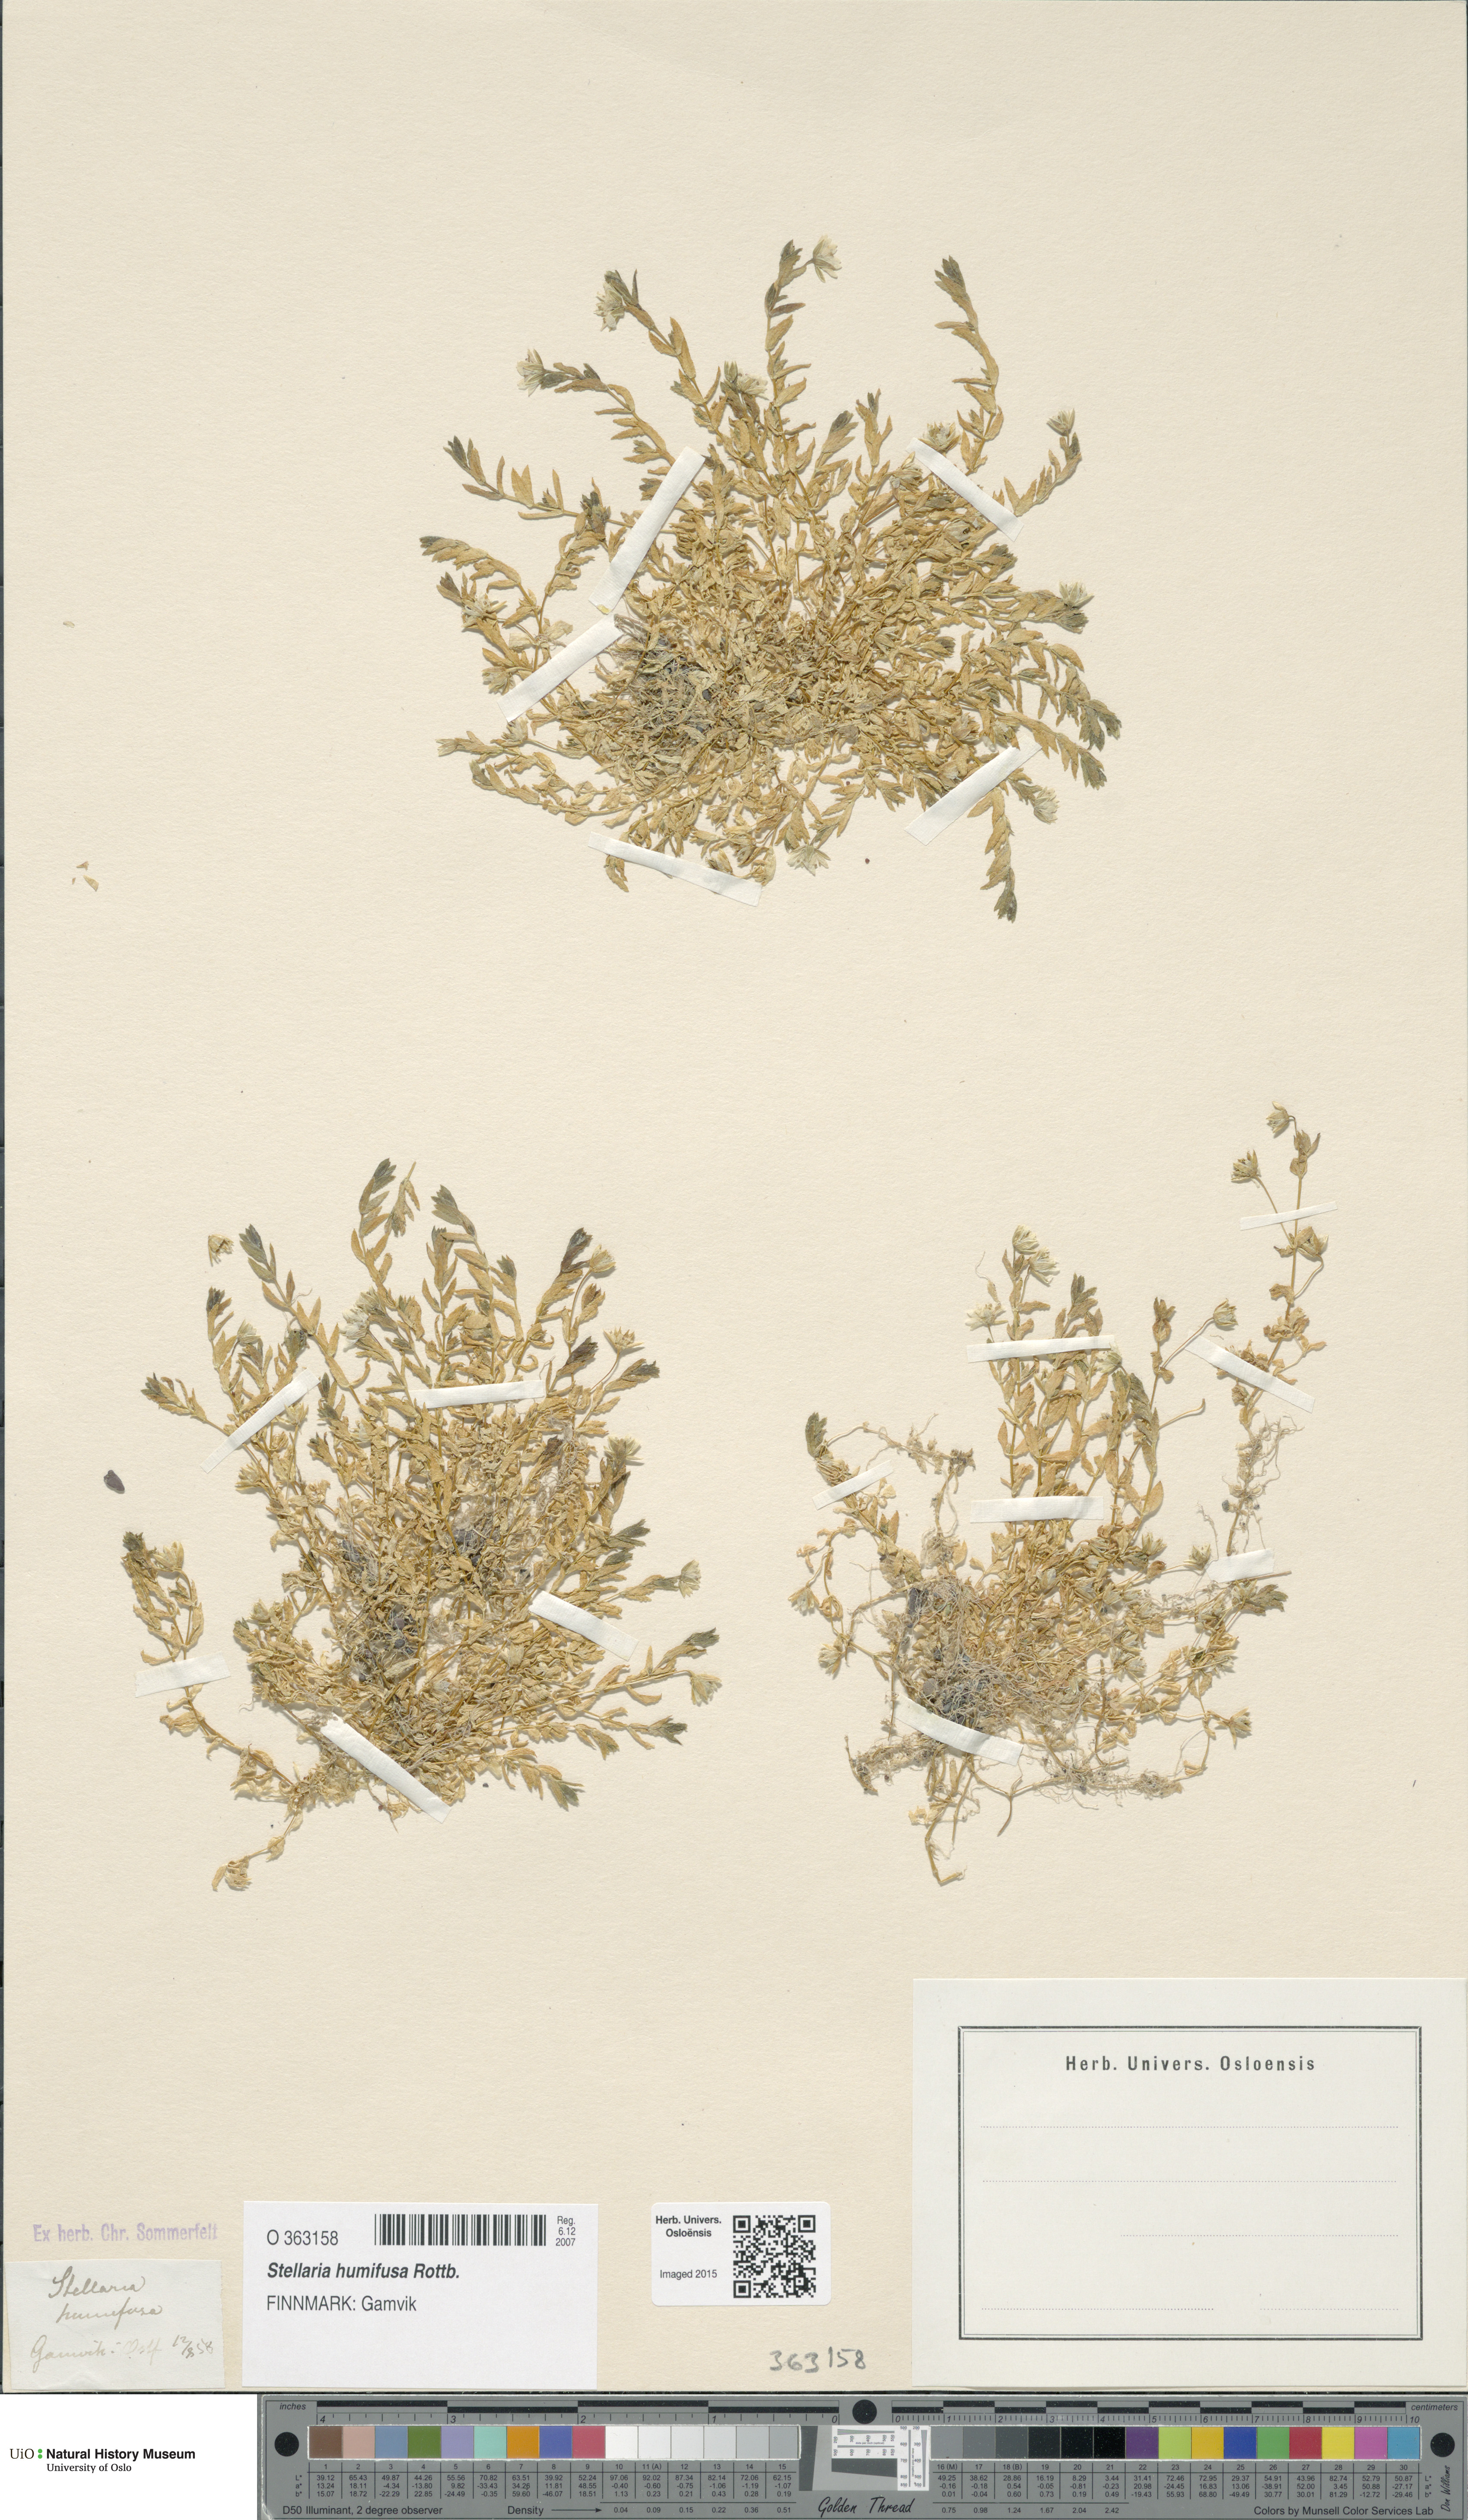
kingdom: Plantae
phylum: Tracheophyta
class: Magnoliopsida
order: Caryophyllales
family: Caryophyllaceae
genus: Stellaria
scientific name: Stellaria humifusa
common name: Creeping starwort
